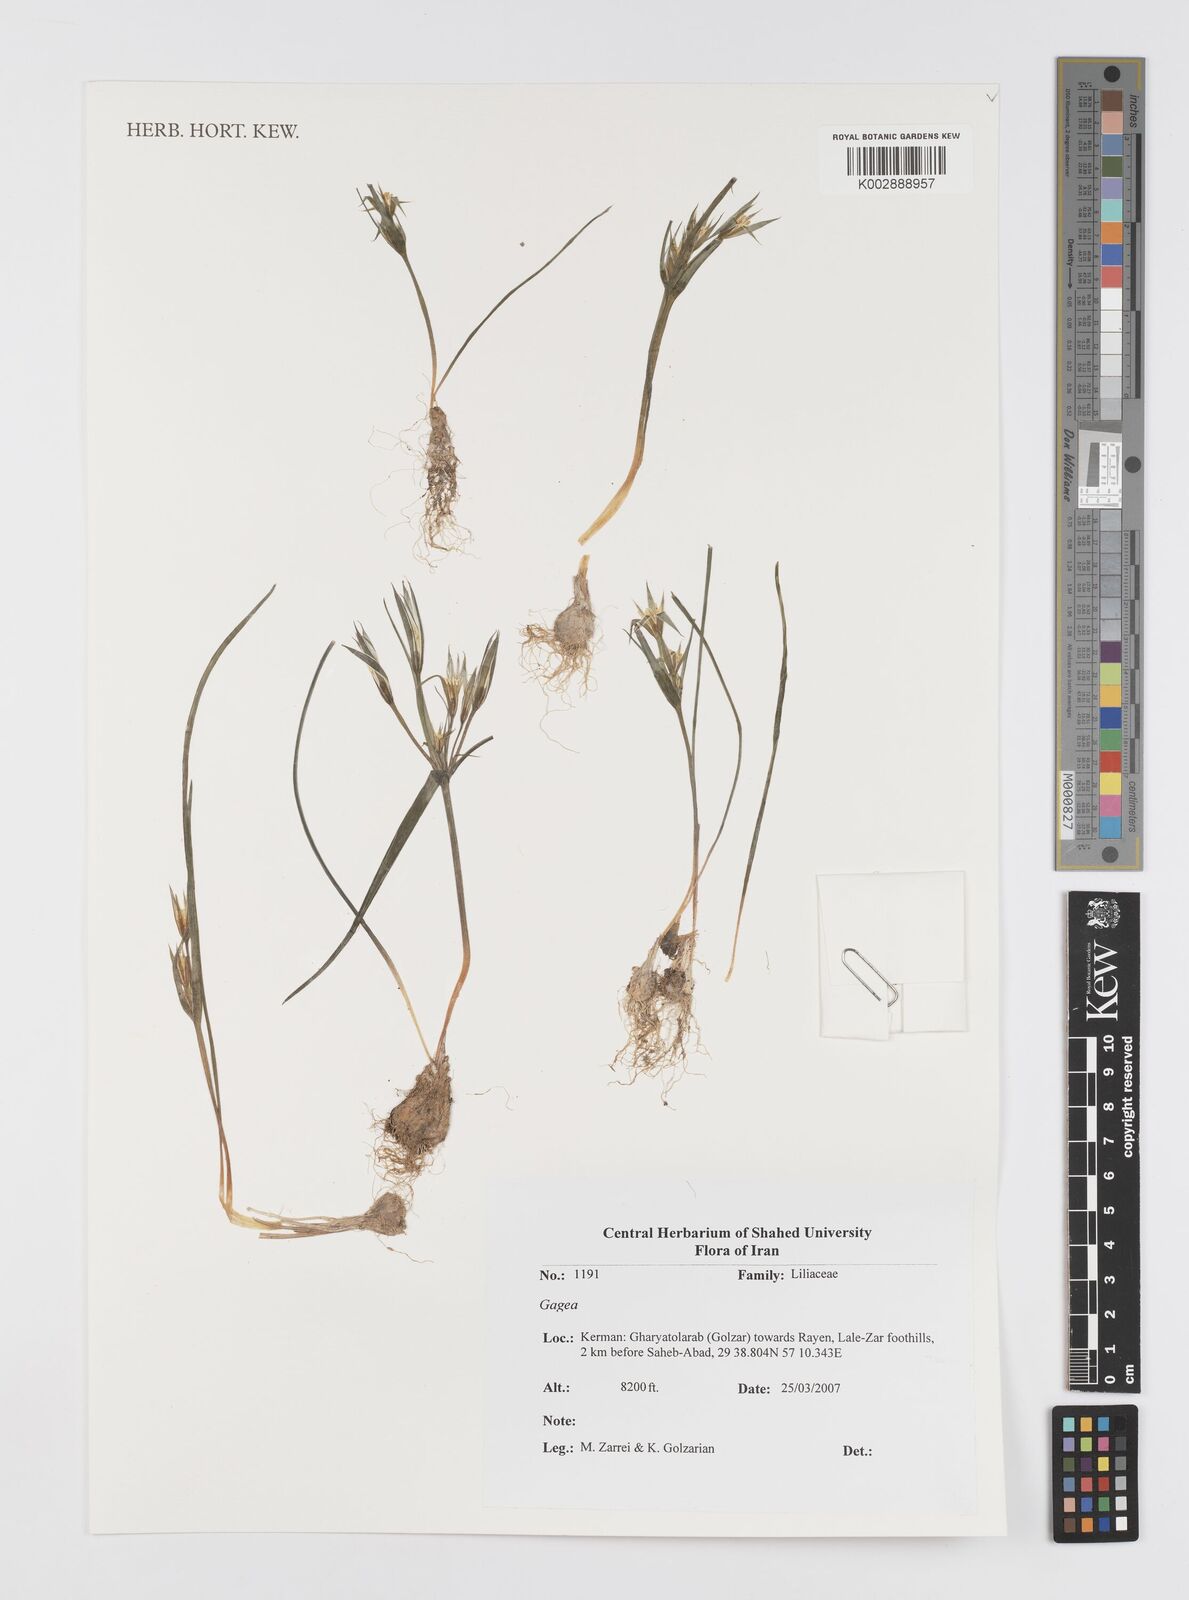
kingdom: Plantae
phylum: Tracheophyta
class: Liliopsida
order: Liliales
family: Liliaceae
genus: Gagea
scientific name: Gagea
